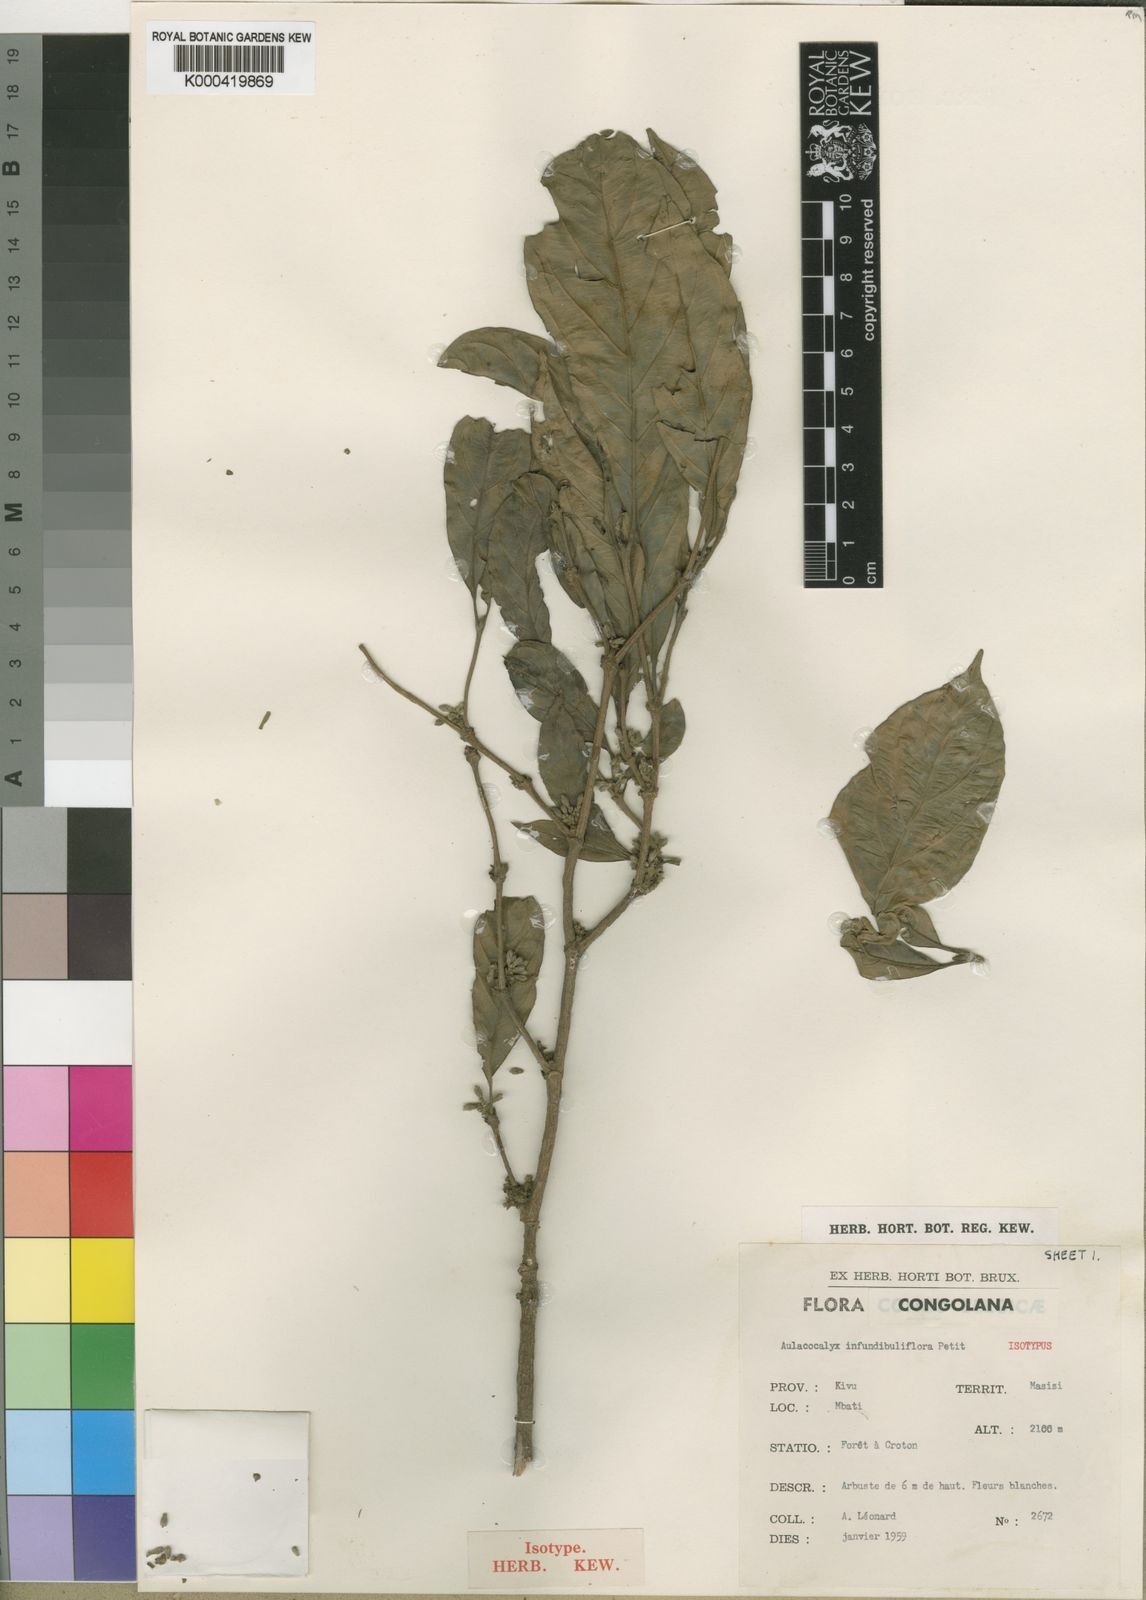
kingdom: Plantae
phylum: Tracheophyta
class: Magnoliopsida
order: Gentianales
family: Rubiaceae
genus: Heinsenia
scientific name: Heinsenia diervilleoides
